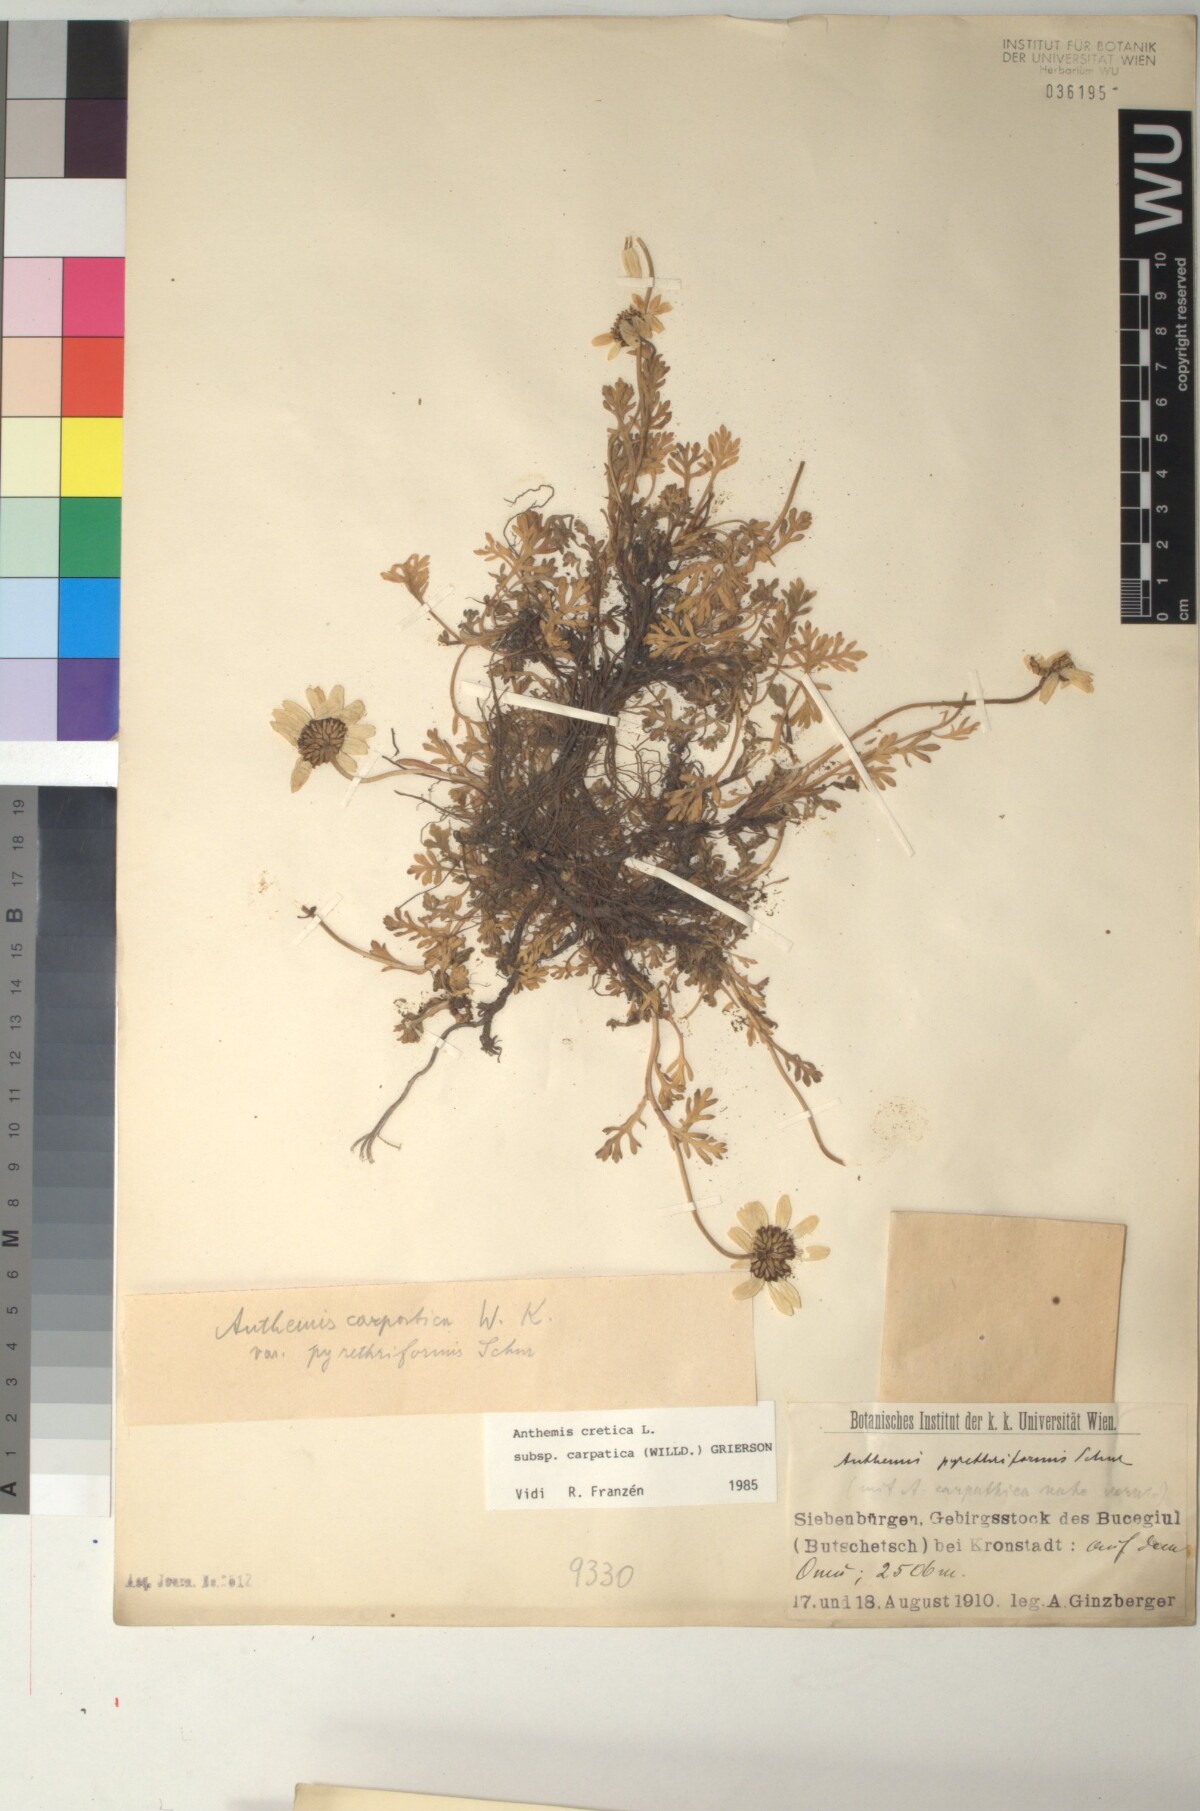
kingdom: Plantae
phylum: Tracheophyta
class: Magnoliopsida
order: Asterales
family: Asteraceae
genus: Anthemis
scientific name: Anthemis cretica
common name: Mountain dog-daisy
